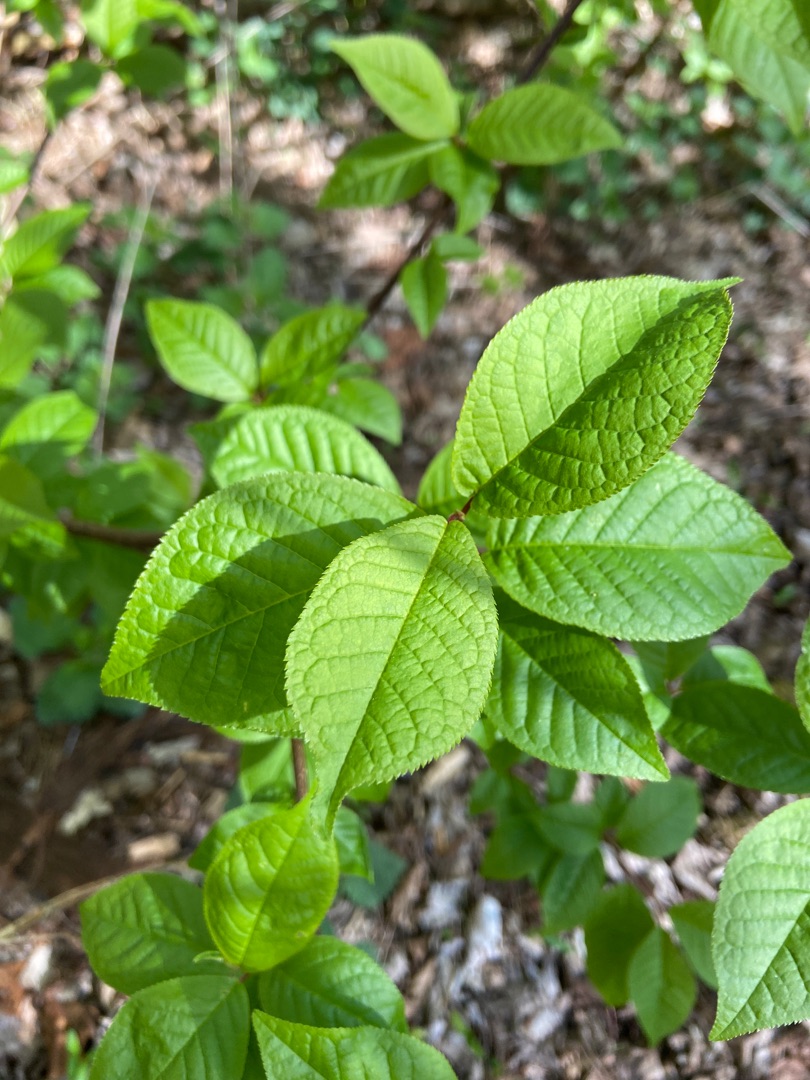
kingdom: Plantae
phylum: Tracheophyta
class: Magnoliopsida
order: Rosales
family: Rosaceae
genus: Prunus
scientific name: Prunus padus
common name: Almindelig hæg
